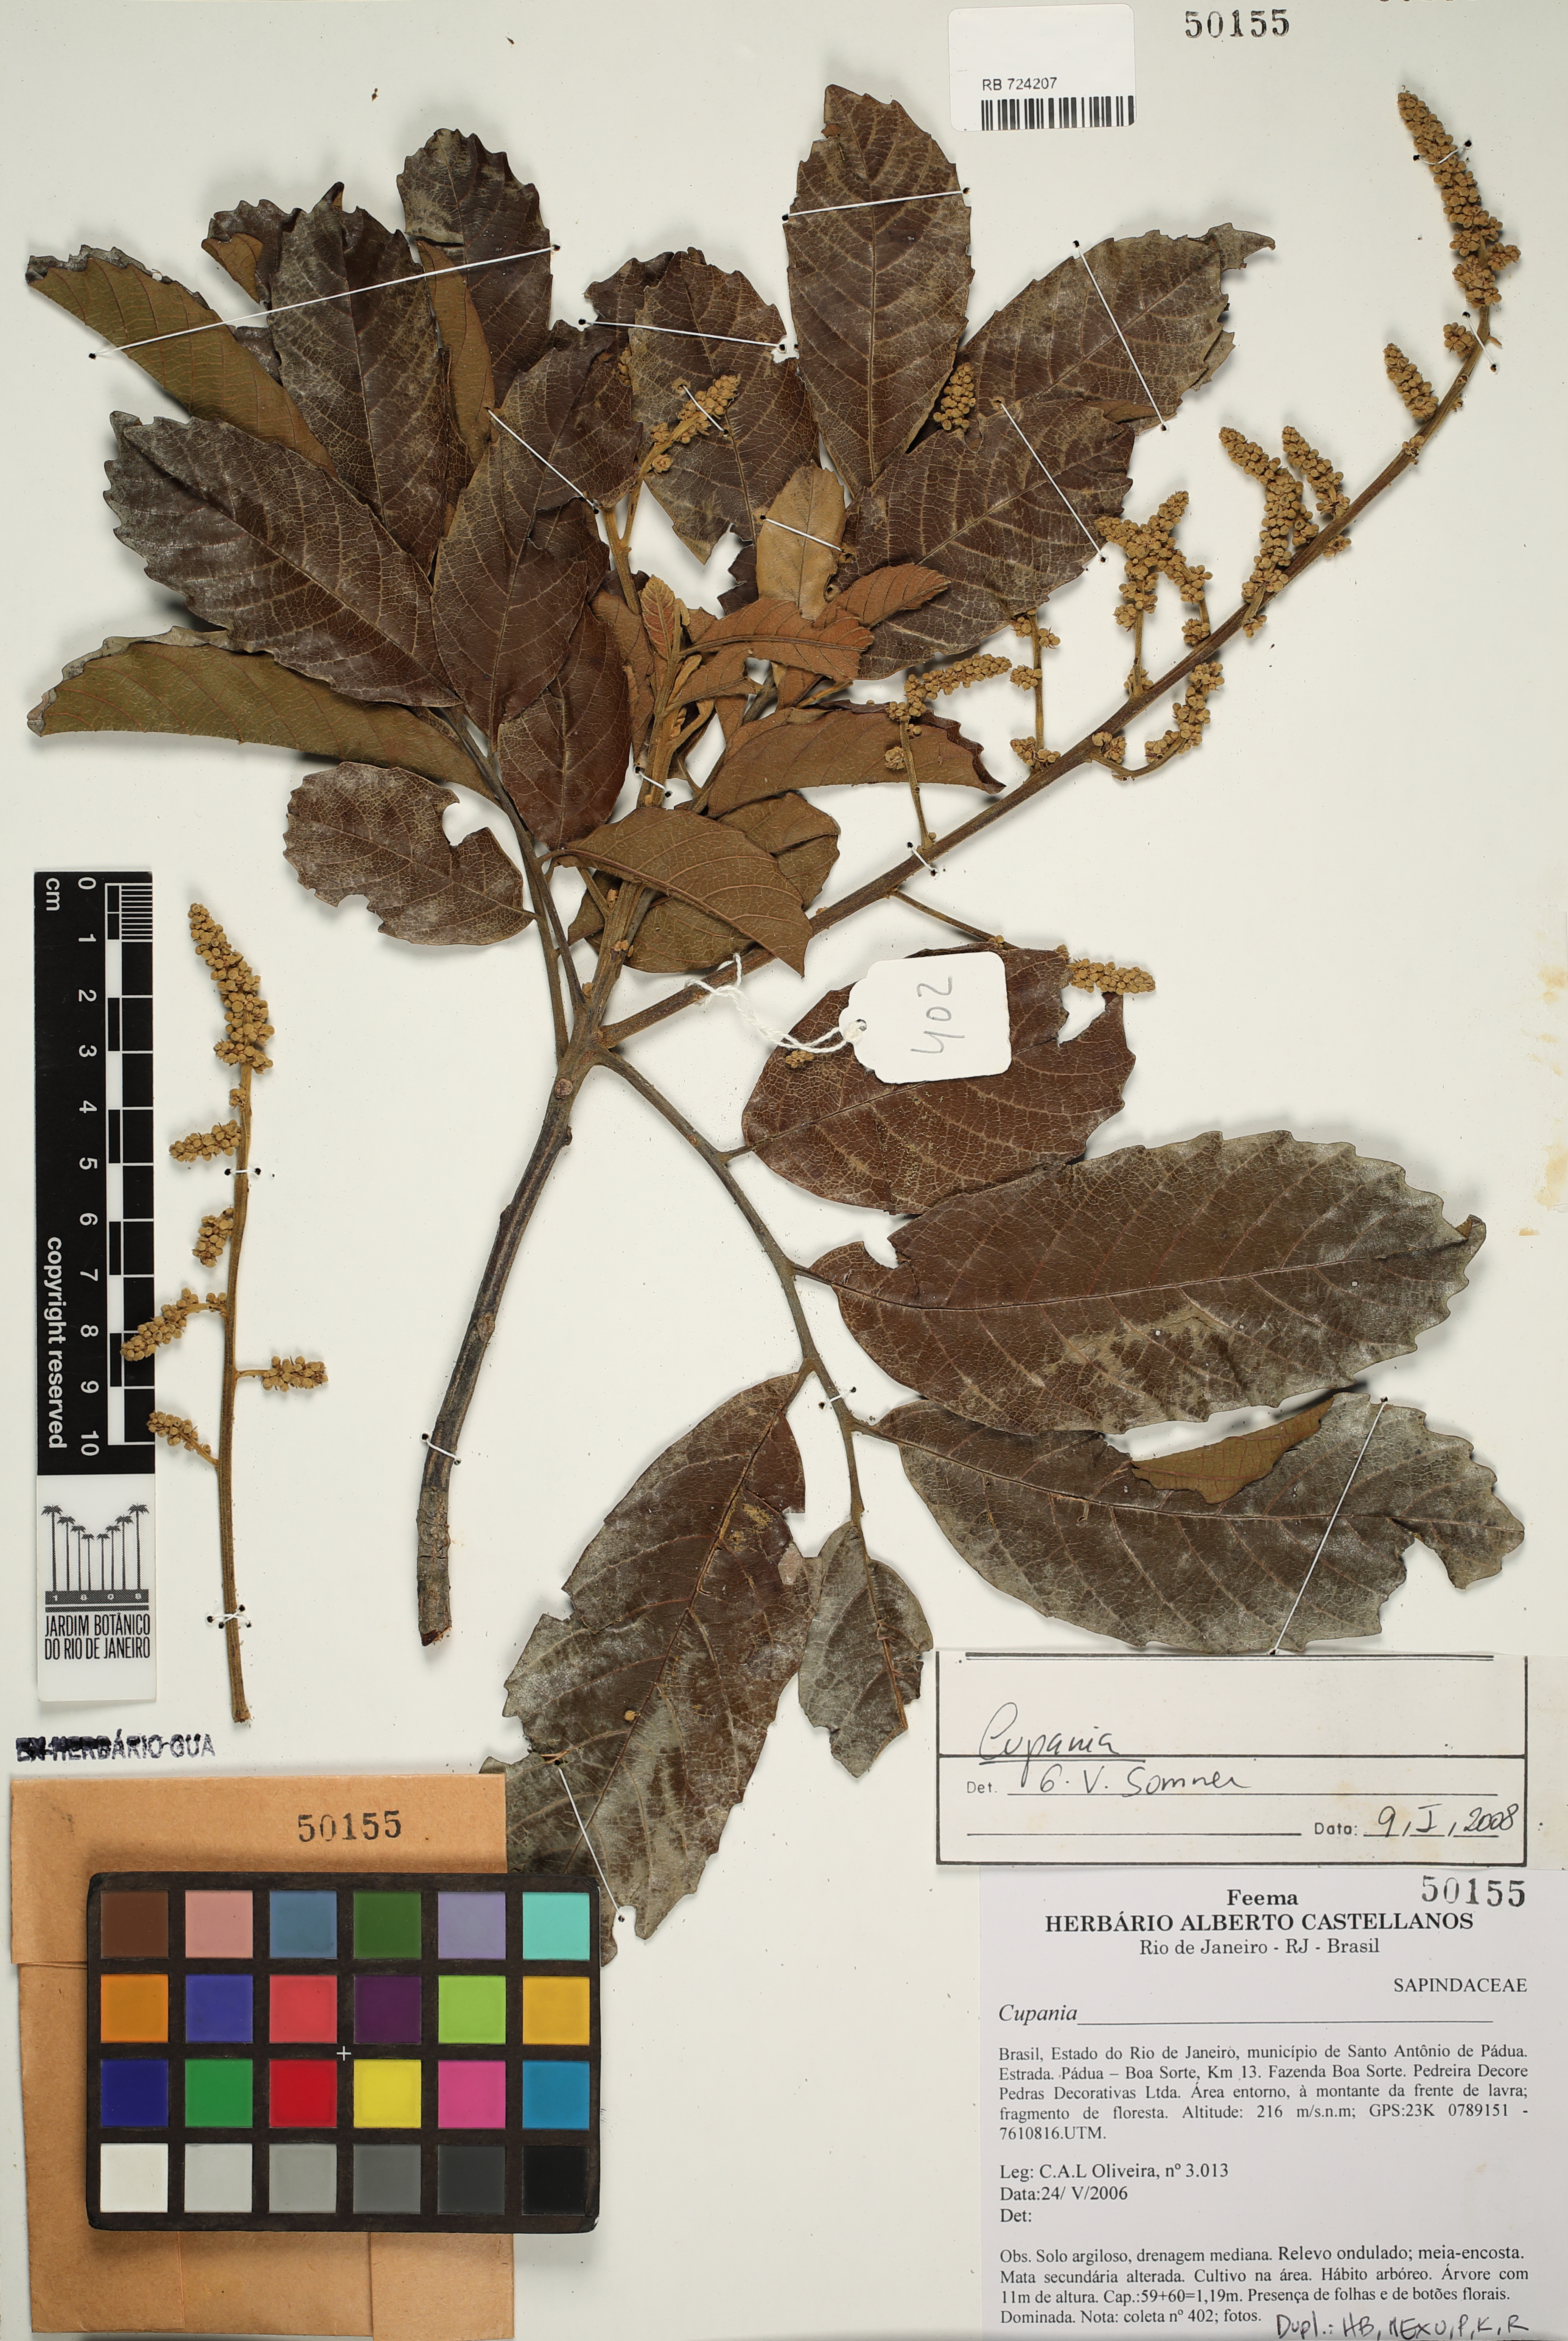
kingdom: Plantae
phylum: Tracheophyta
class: Magnoliopsida
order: Sapindales
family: Sapindaceae
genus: Cupania
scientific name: Cupania
